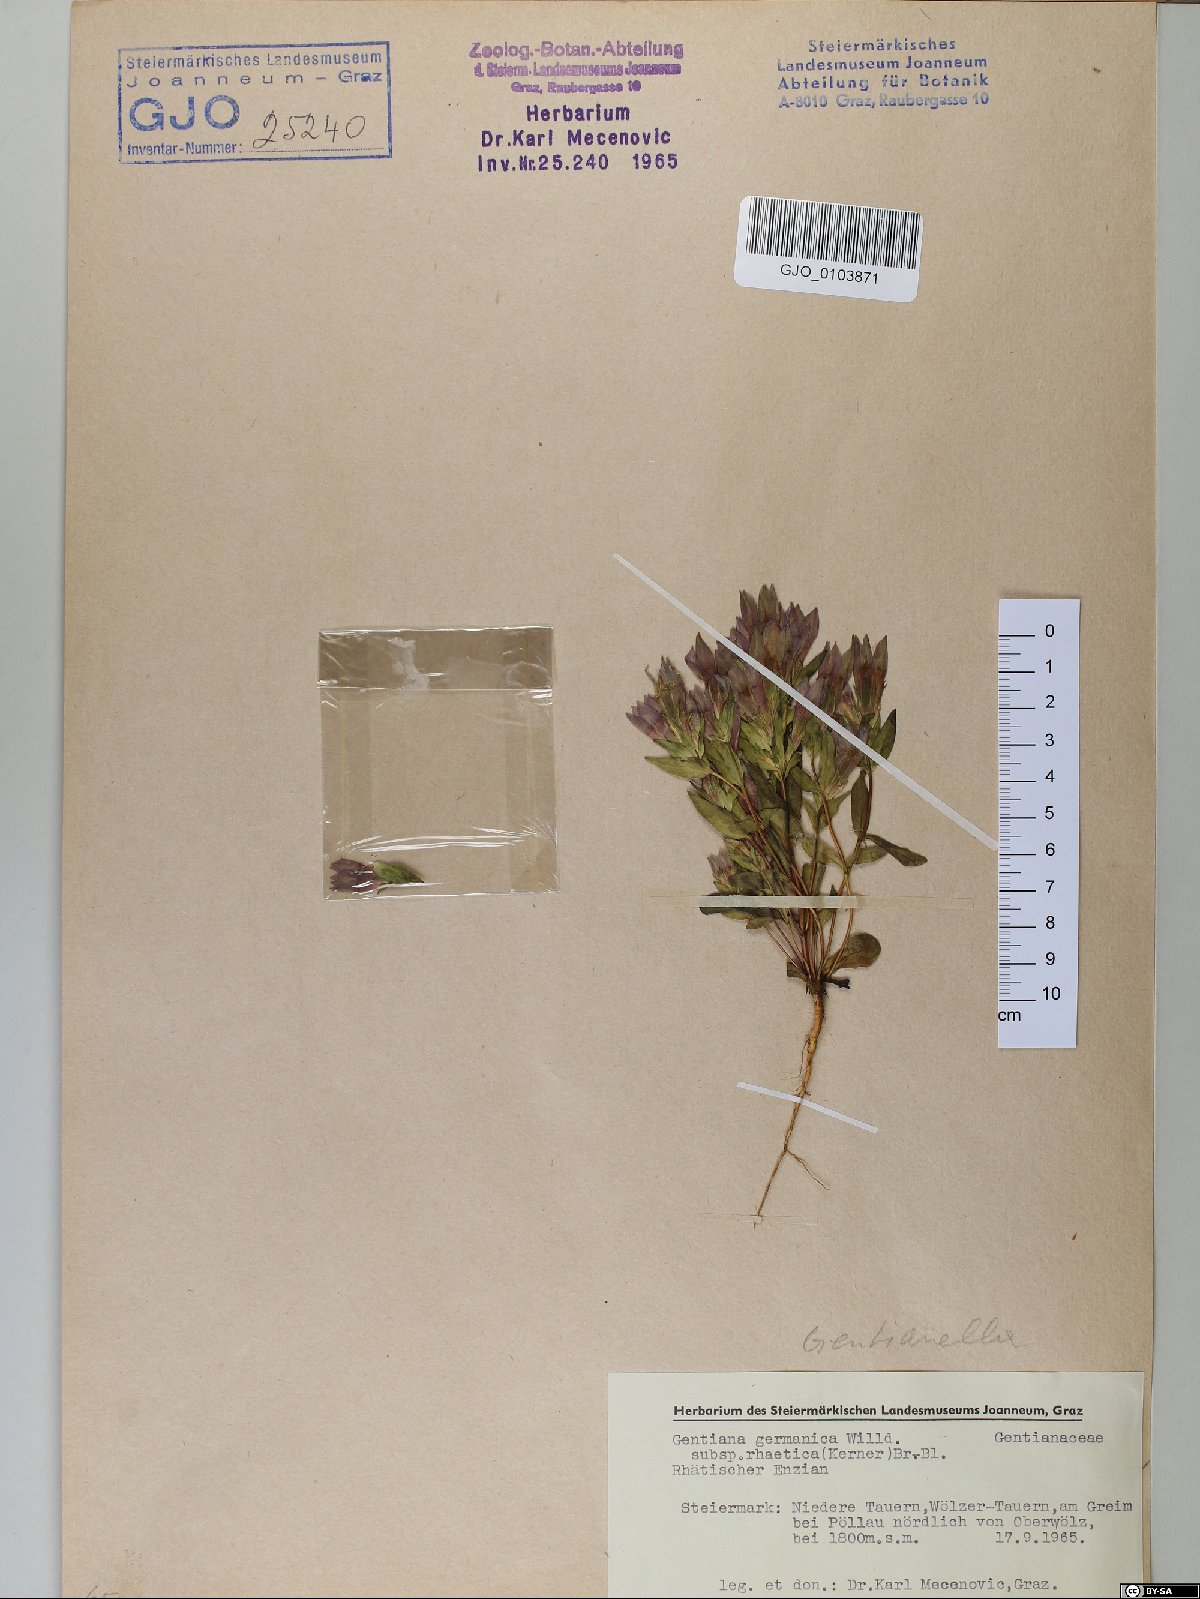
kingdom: Plantae
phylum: Tracheophyta
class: Magnoliopsida
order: Gentianales
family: Gentianaceae
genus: Gentianella
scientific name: Gentianella rhaetica
